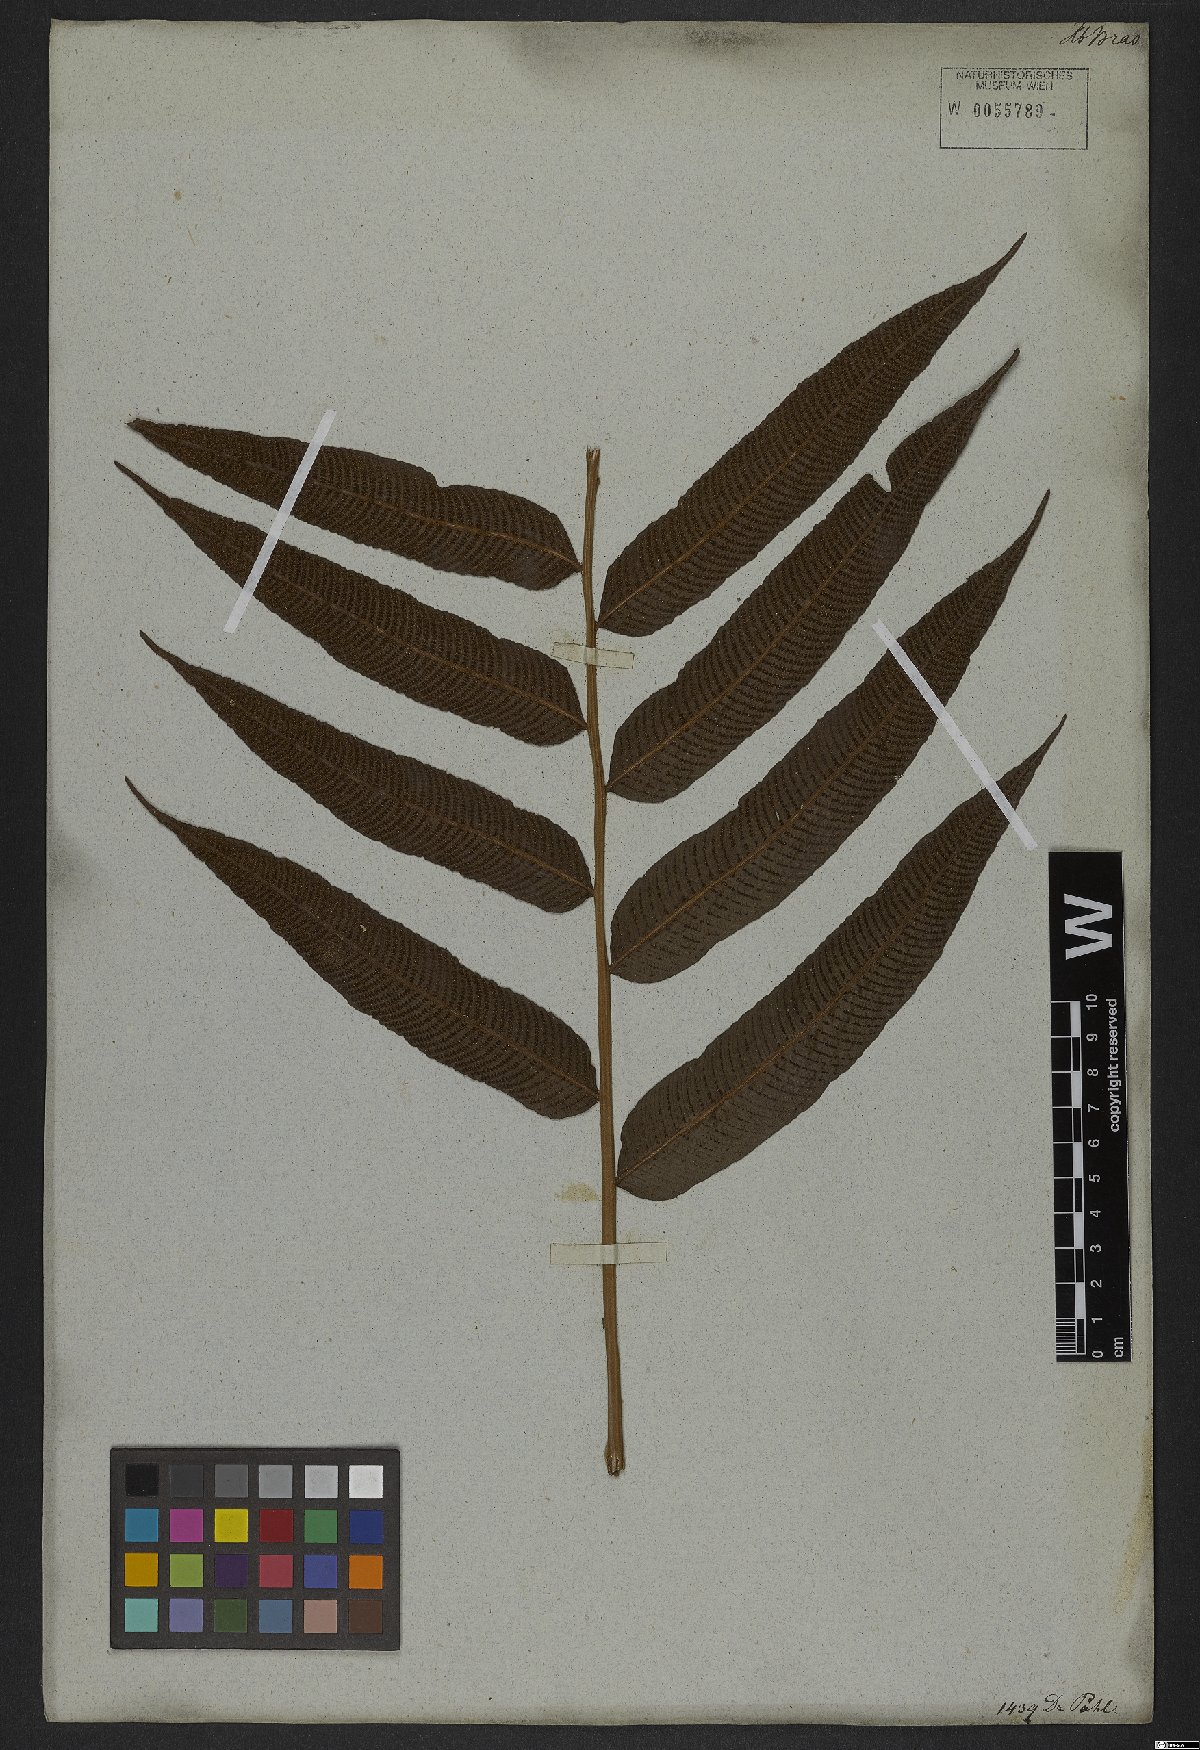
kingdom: Plantae
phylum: Tracheophyta
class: Polypodiopsida
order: Polypodiales
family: Thelypteridaceae
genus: Meniscium
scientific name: Meniscium reticulatum
